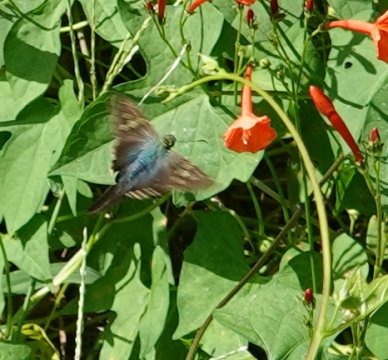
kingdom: Animalia
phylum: Arthropoda
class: Insecta
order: Lepidoptera
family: Hesperiidae
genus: Urbanus
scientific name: Urbanus proteus
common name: Long-tailed Skipper
